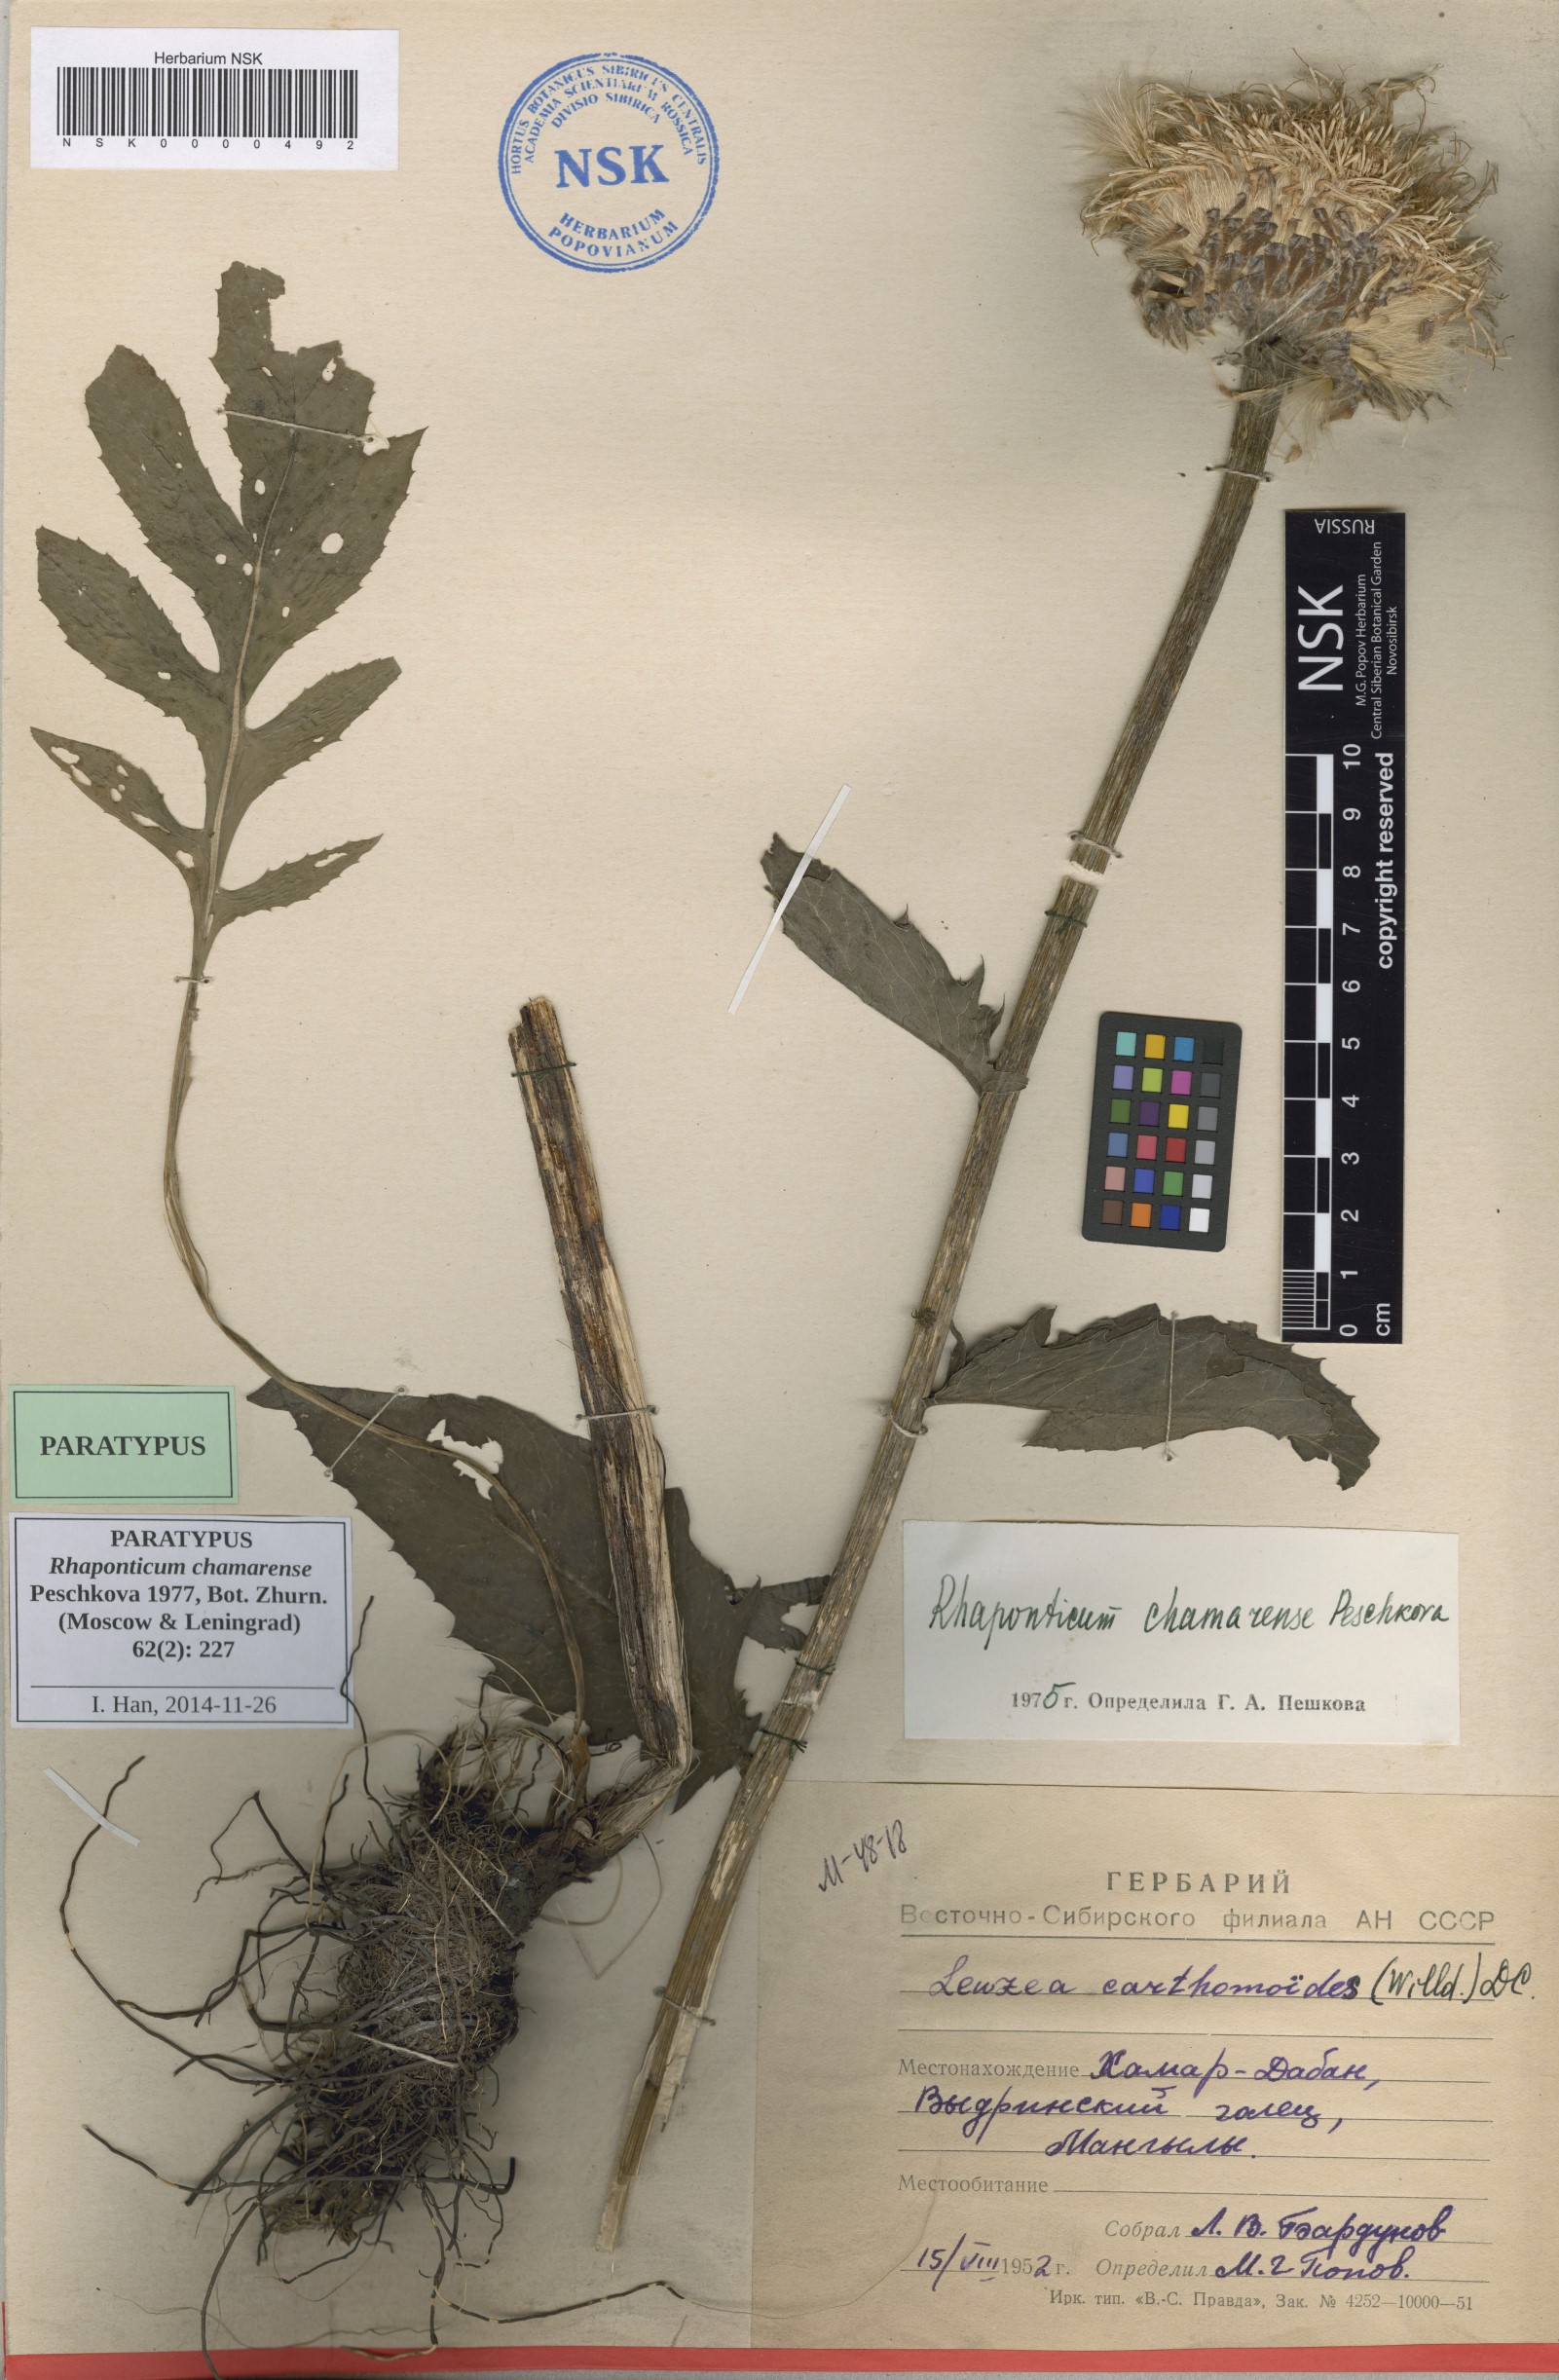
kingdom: Plantae
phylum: Tracheophyta
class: Magnoliopsida
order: Asterales
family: Asteraceae
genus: Leuzea
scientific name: Leuzea carthamoides
